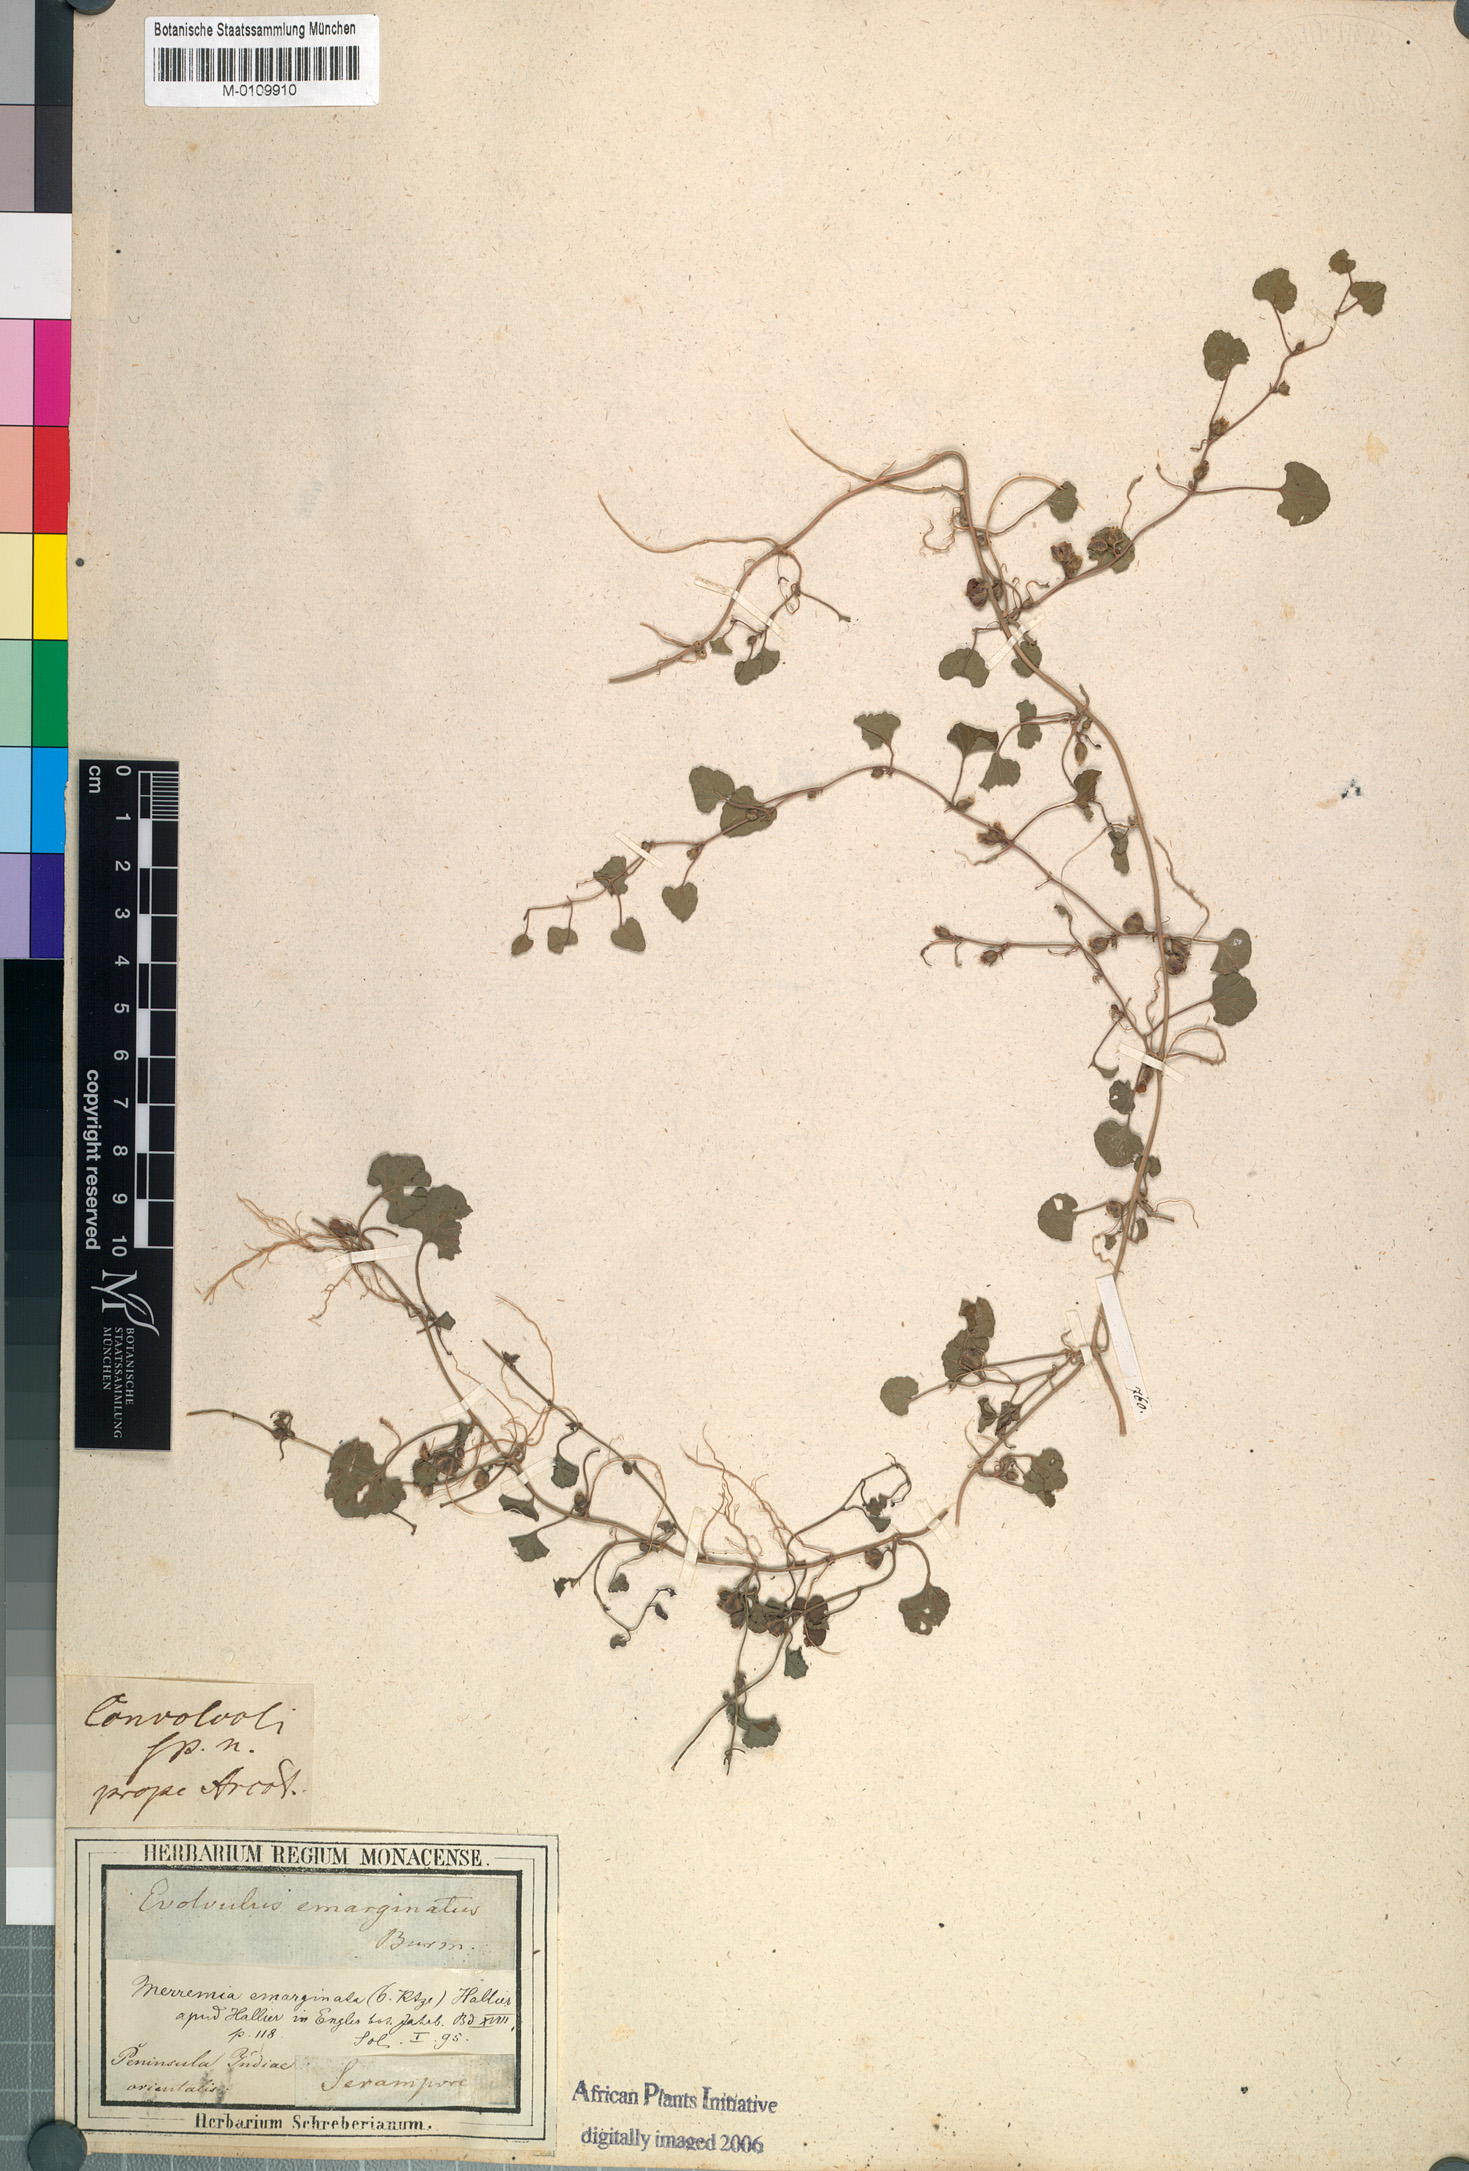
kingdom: Plantae
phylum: Tracheophyta
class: Magnoliopsida
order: Solanales
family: Convolvulaceae
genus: Merremia
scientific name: Merremia emarginata
